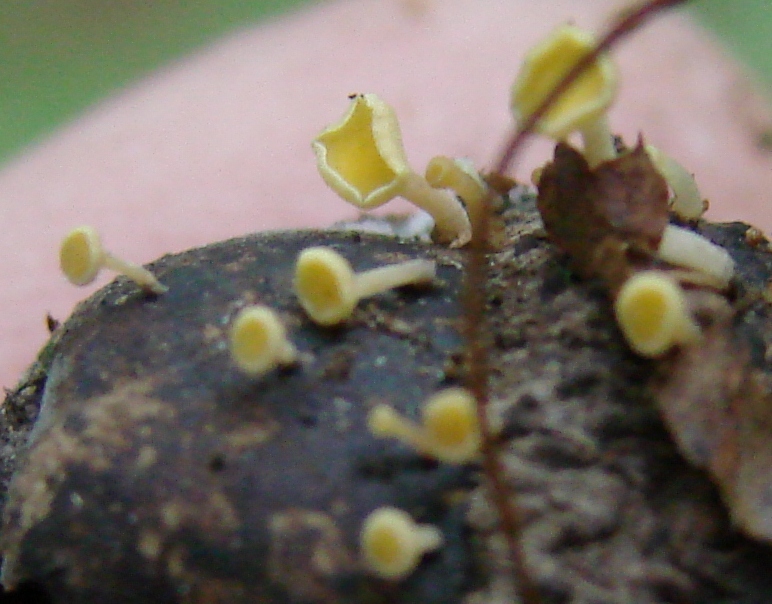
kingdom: Fungi
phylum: Ascomycota
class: Leotiomycetes
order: Helotiales
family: Helotiaceae
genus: Hymenoscyphus
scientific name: Hymenoscyphus fructigenus
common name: frugt-stilkskive
